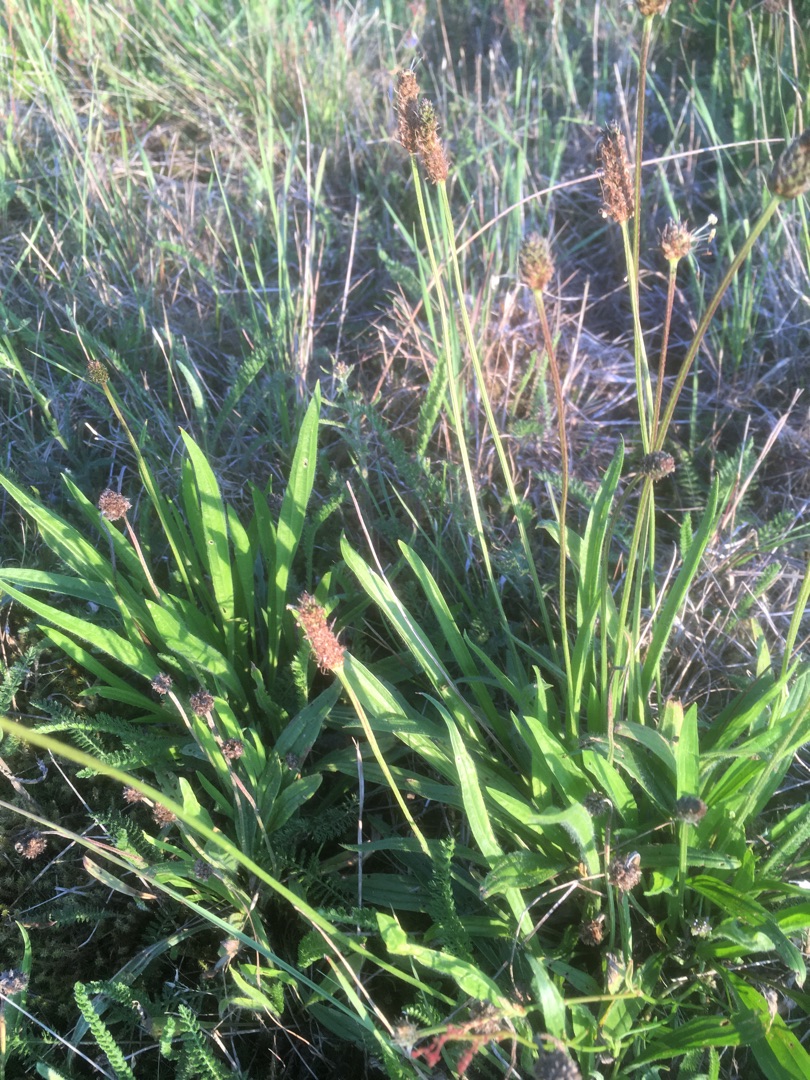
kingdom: Plantae
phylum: Tracheophyta
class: Magnoliopsida
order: Lamiales
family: Plantaginaceae
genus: Plantago
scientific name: Plantago lanceolata
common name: Lancet-vejbred
